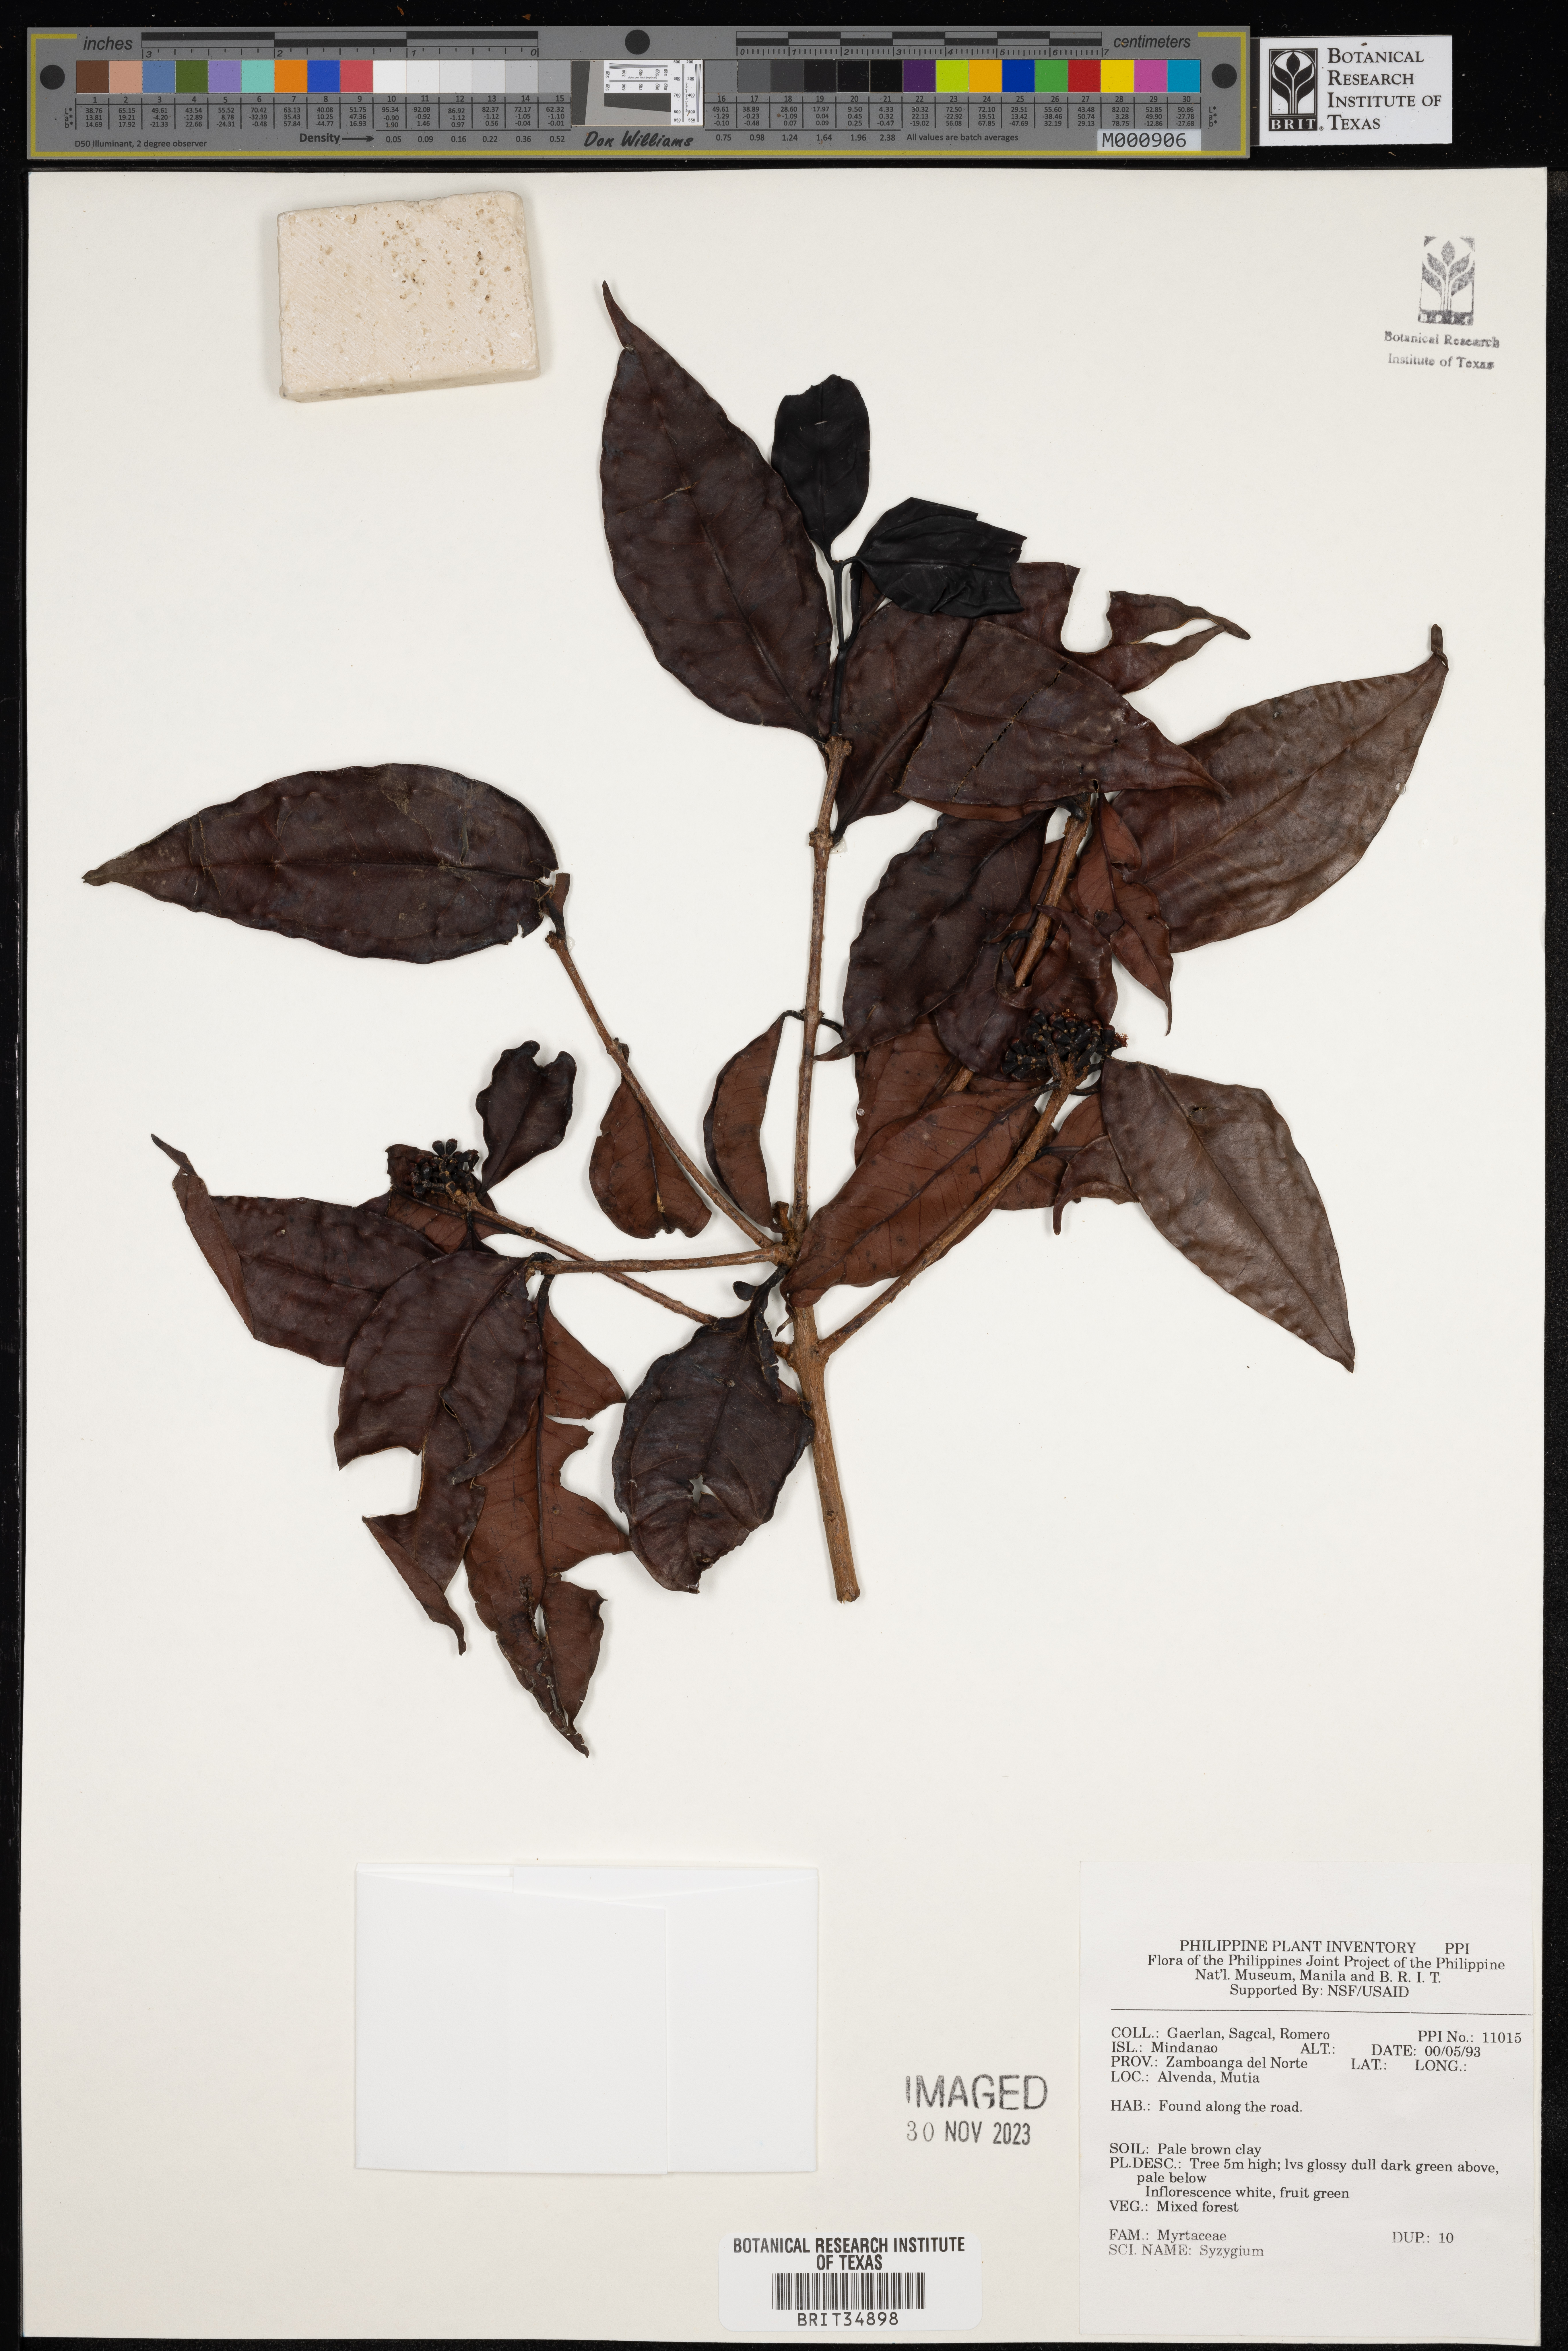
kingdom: Plantae
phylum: Tracheophyta
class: Magnoliopsida
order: Myrtales
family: Myrtaceae
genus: Syzygium
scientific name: Syzygium
